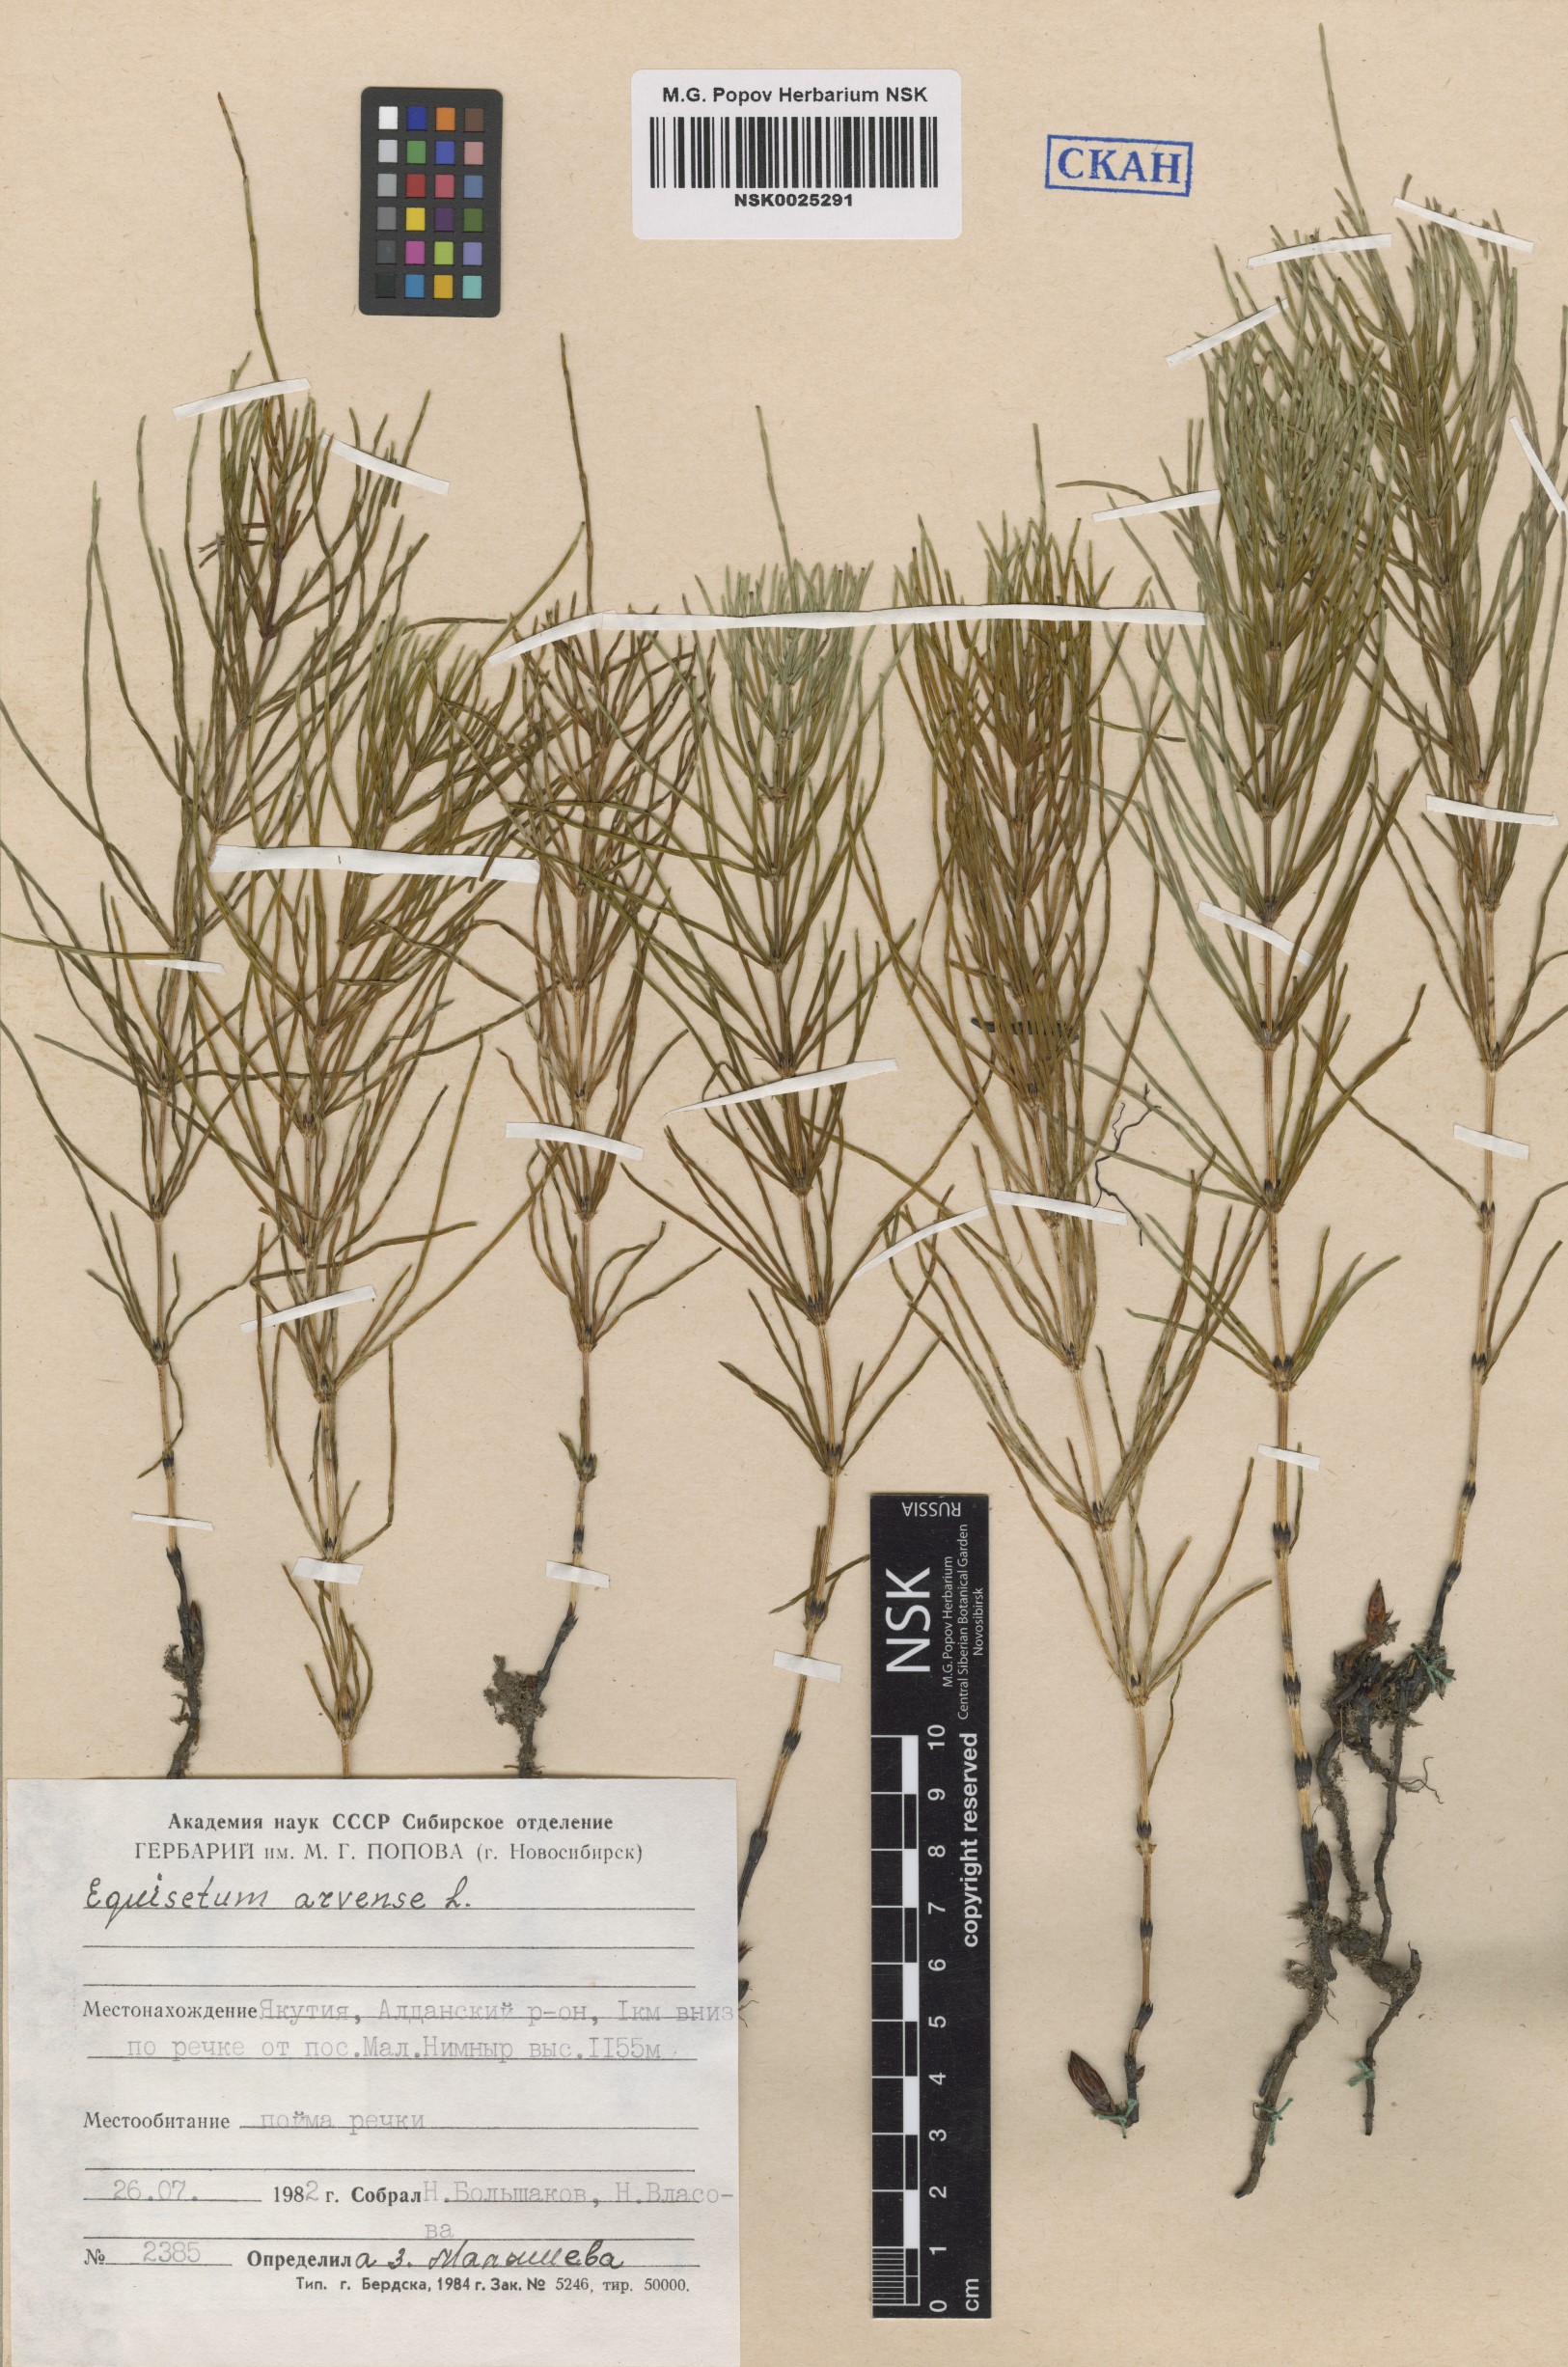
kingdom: Plantae
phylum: Tracheophyta
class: Polypodiopsida
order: Equisetales
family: Equisetaceae
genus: Equisetum
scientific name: Equisetum arvense
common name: Field horsetail
